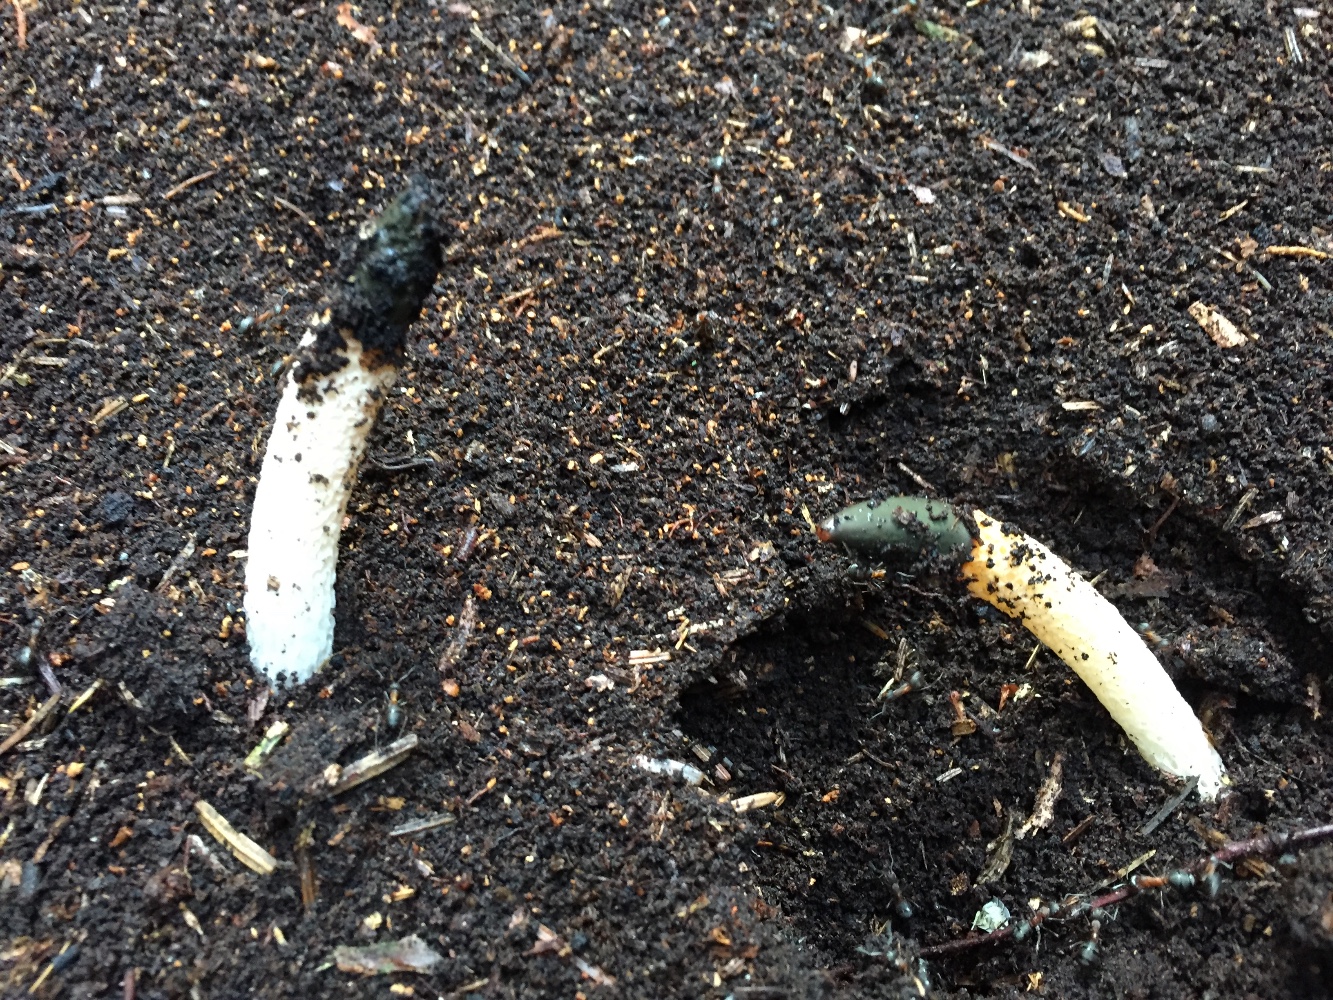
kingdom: Fungi
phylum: Basidiomycota
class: Agaricomycetes
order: Phallales
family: Phallaceae
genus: Mutinus
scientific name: Mutinus caninus
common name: hunde-stinksvamp
